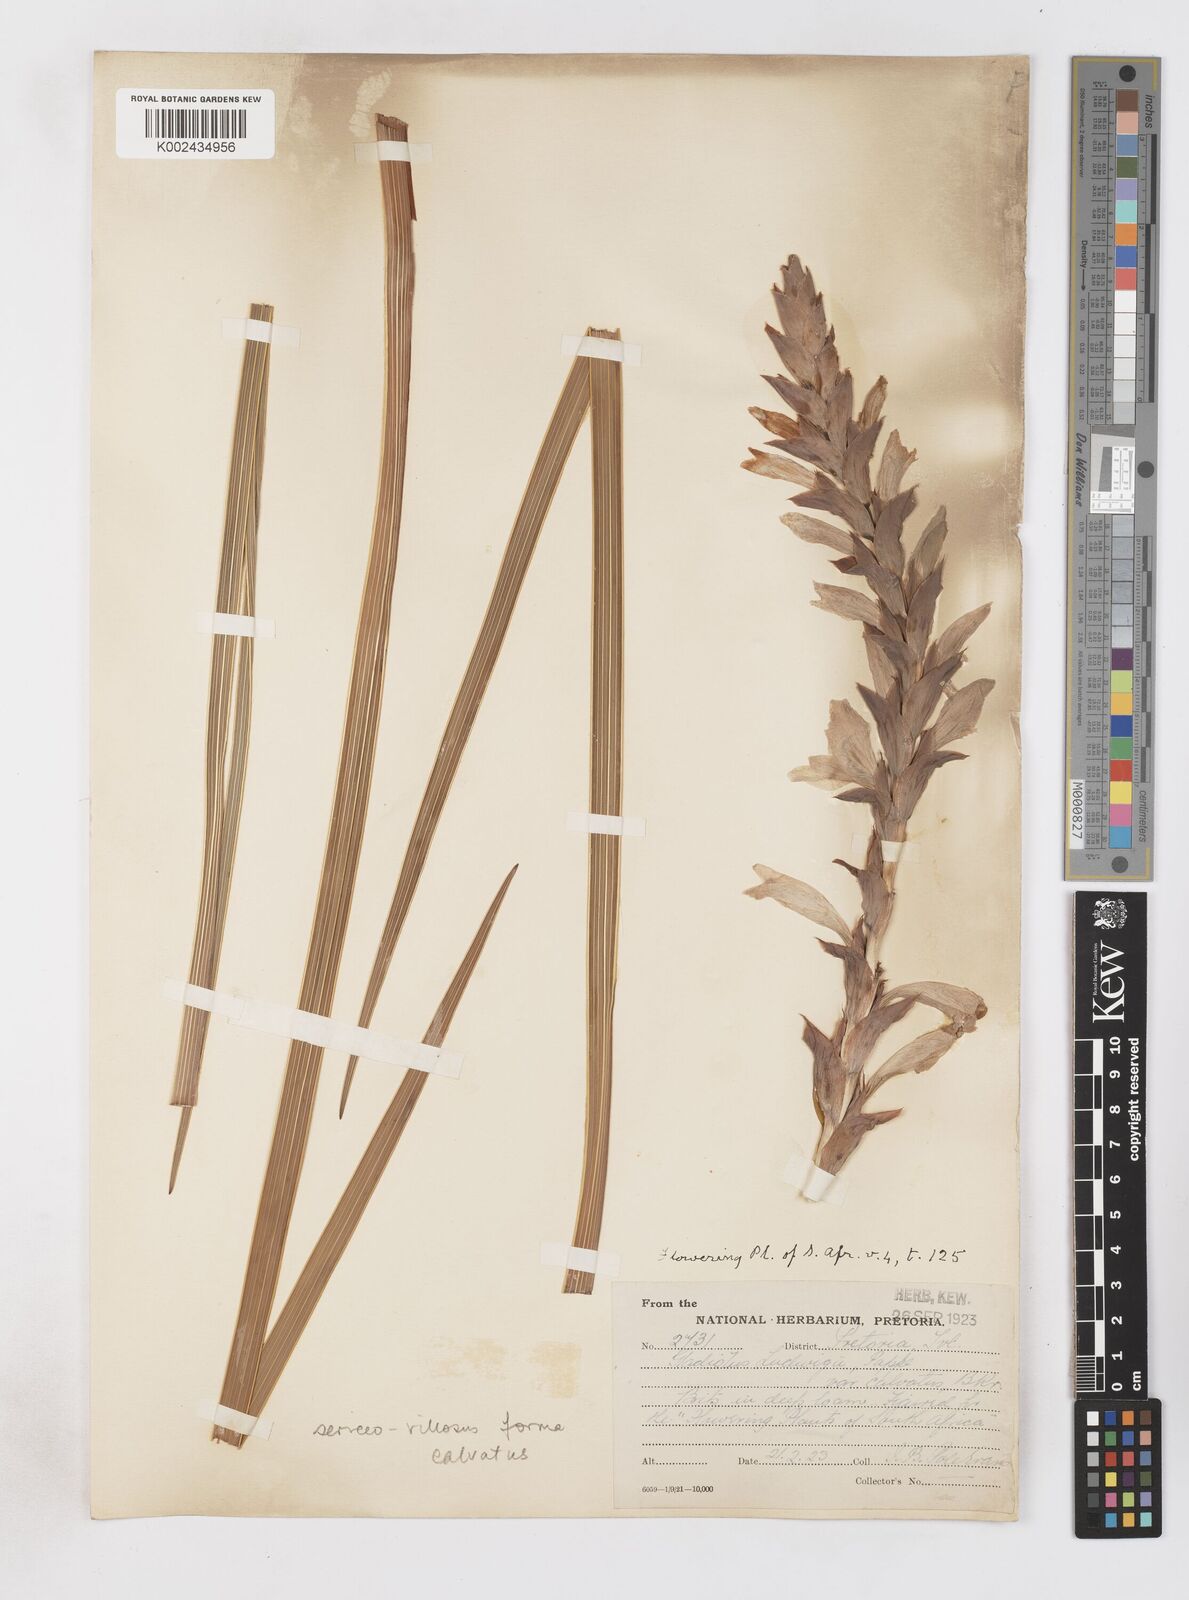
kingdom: Plantae
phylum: Tracheophyta
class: Liliopsida
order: Asparagales
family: Iridaceae
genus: Gladiolus
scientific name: Gladiolus sericeovillosus
